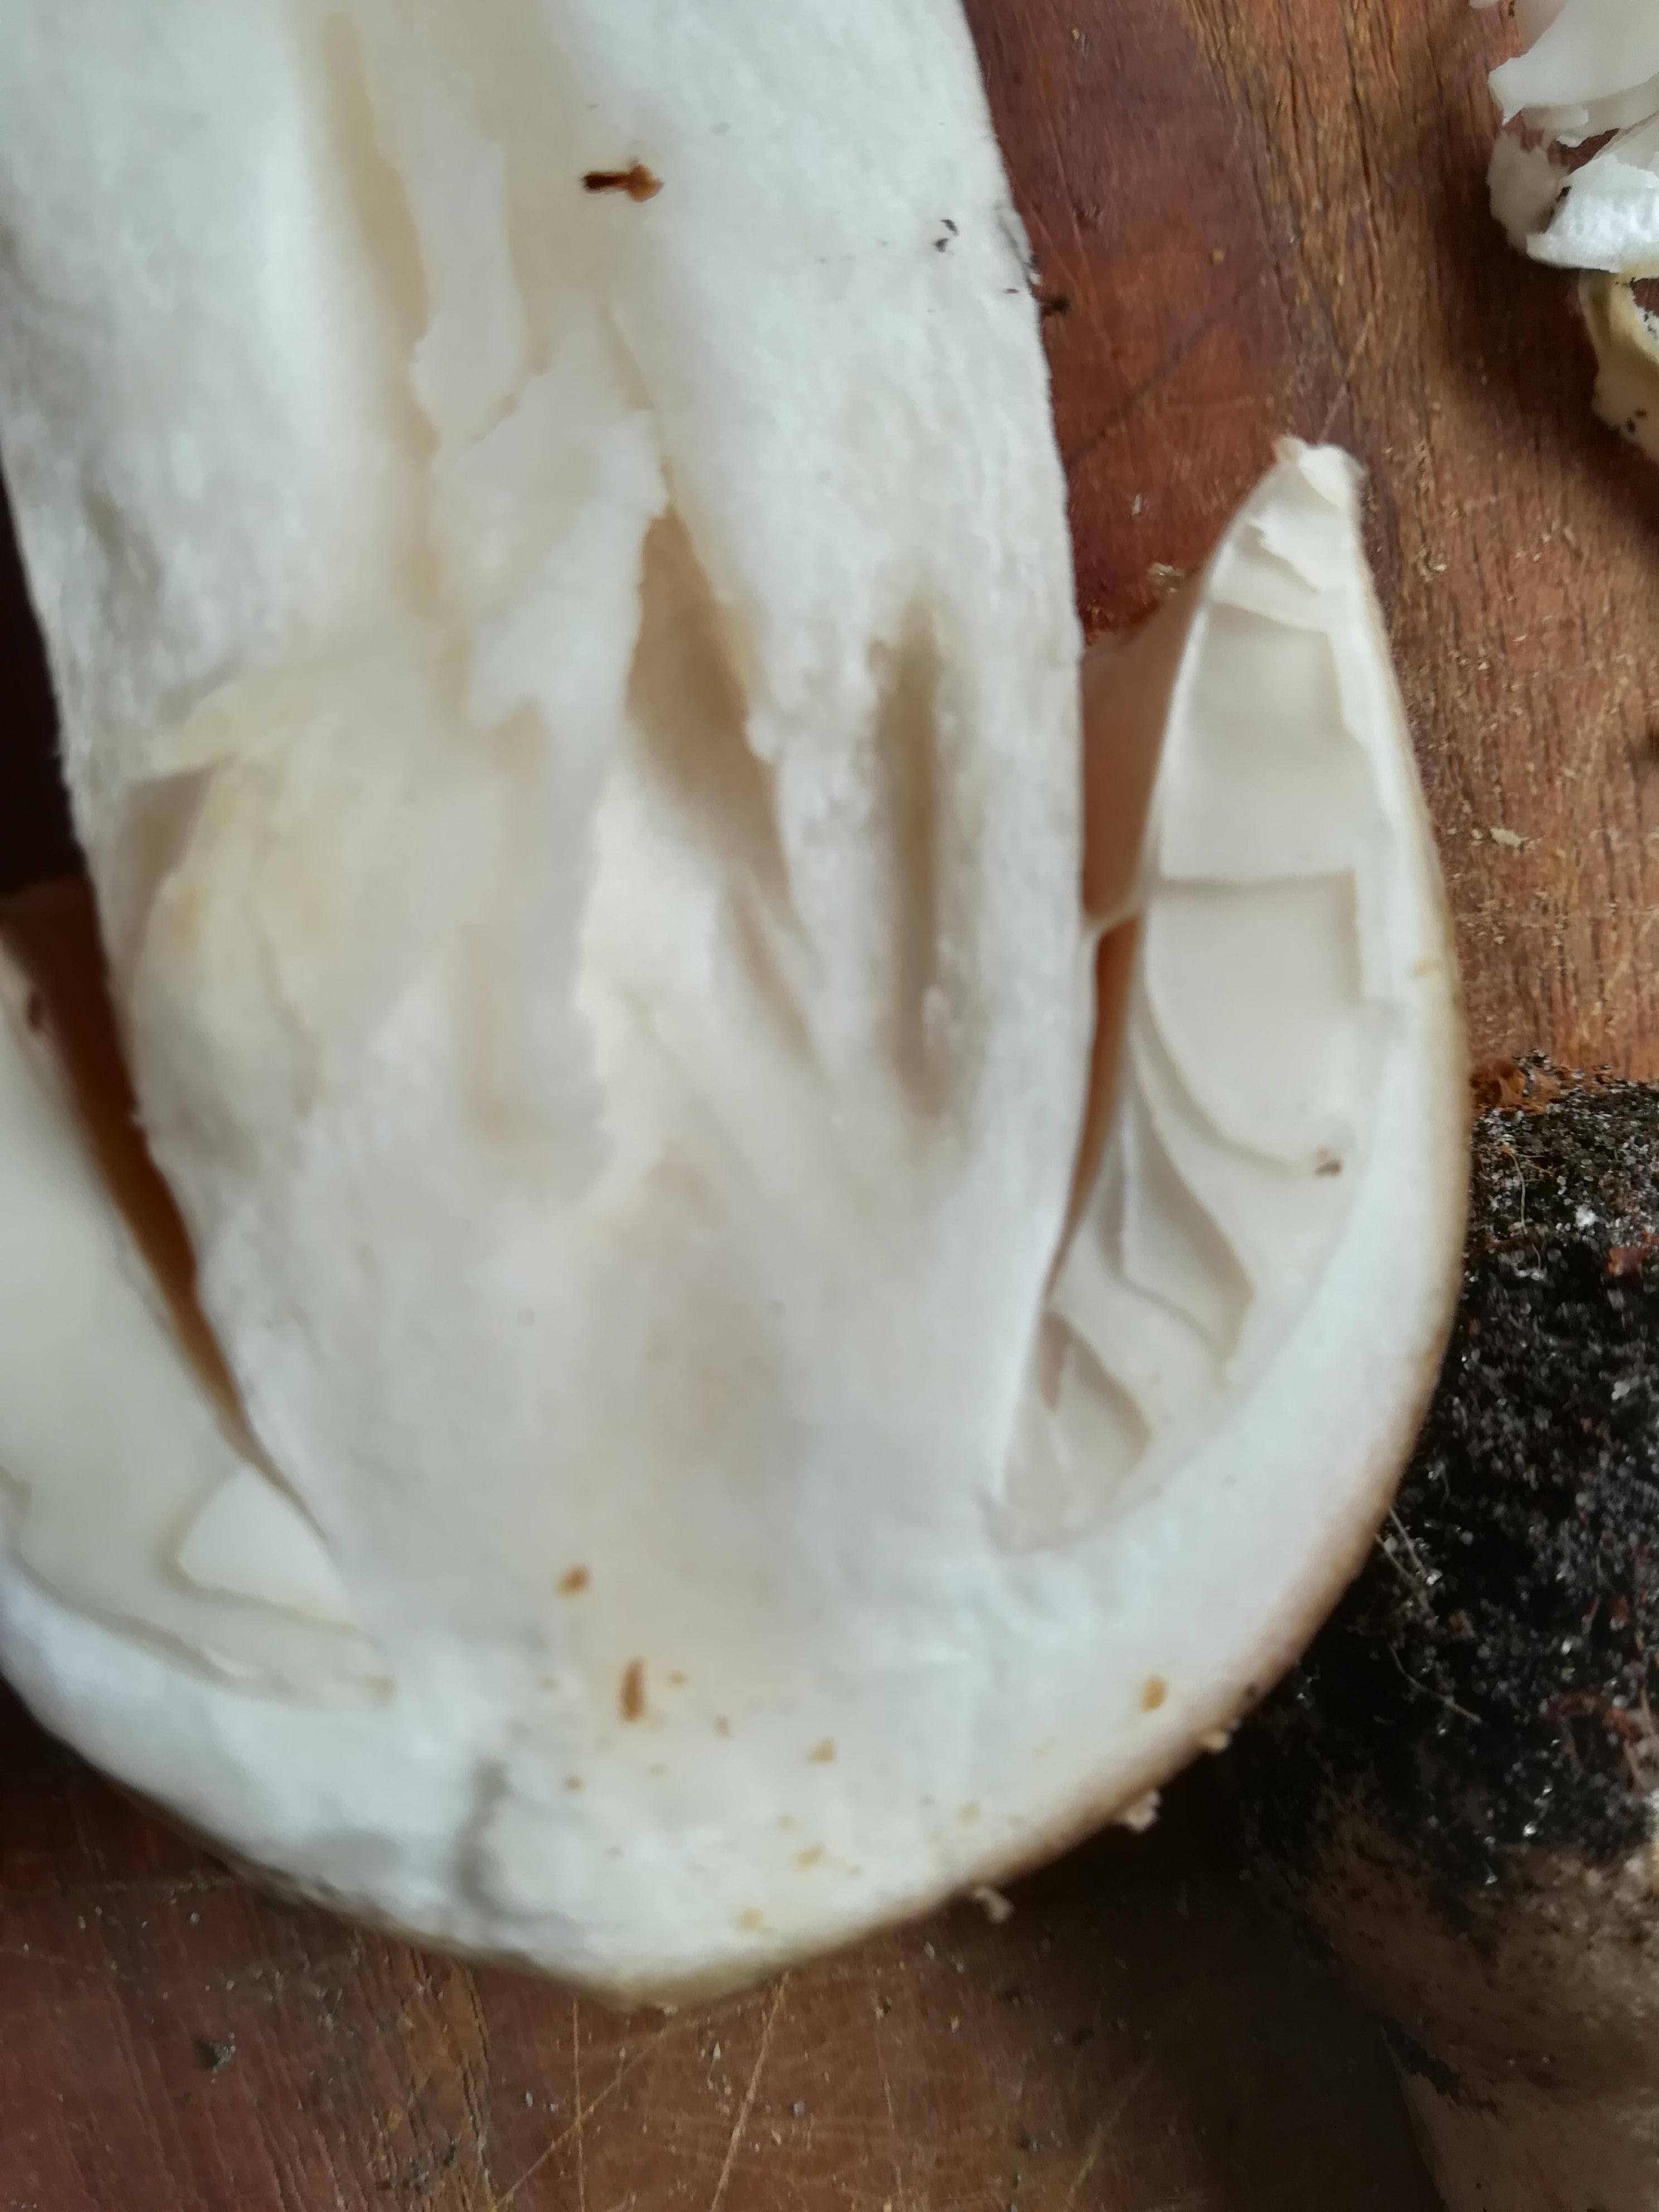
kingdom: Fungi
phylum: Basidiomycota
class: Agaricomycetes
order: Agaricales
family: Amanitaceae
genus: Amanita
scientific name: Amanita rubescens
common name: rødmende fluesvamp
